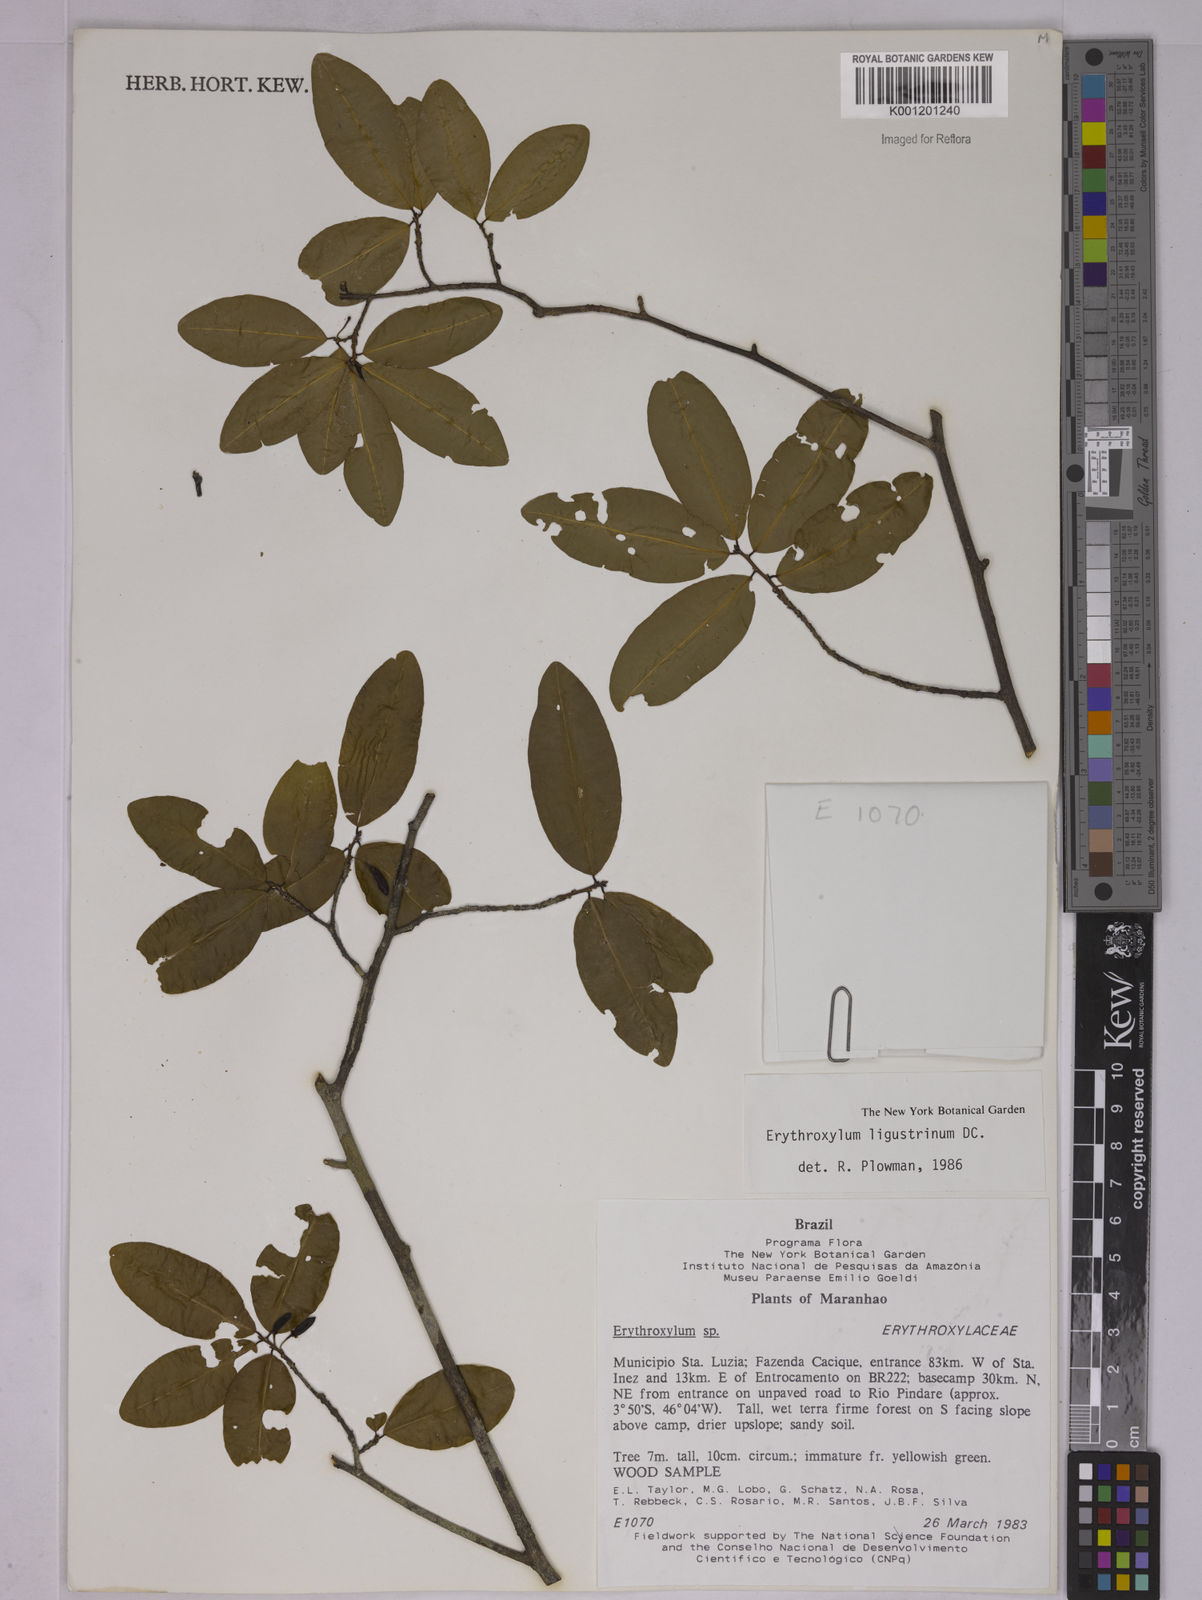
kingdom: Plantae
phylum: Tracheophyta
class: Magnoliopsida
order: Malpighiales
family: Erythroxylaceae
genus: Erythroxylum
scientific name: Erythroxylum ligustrinum
